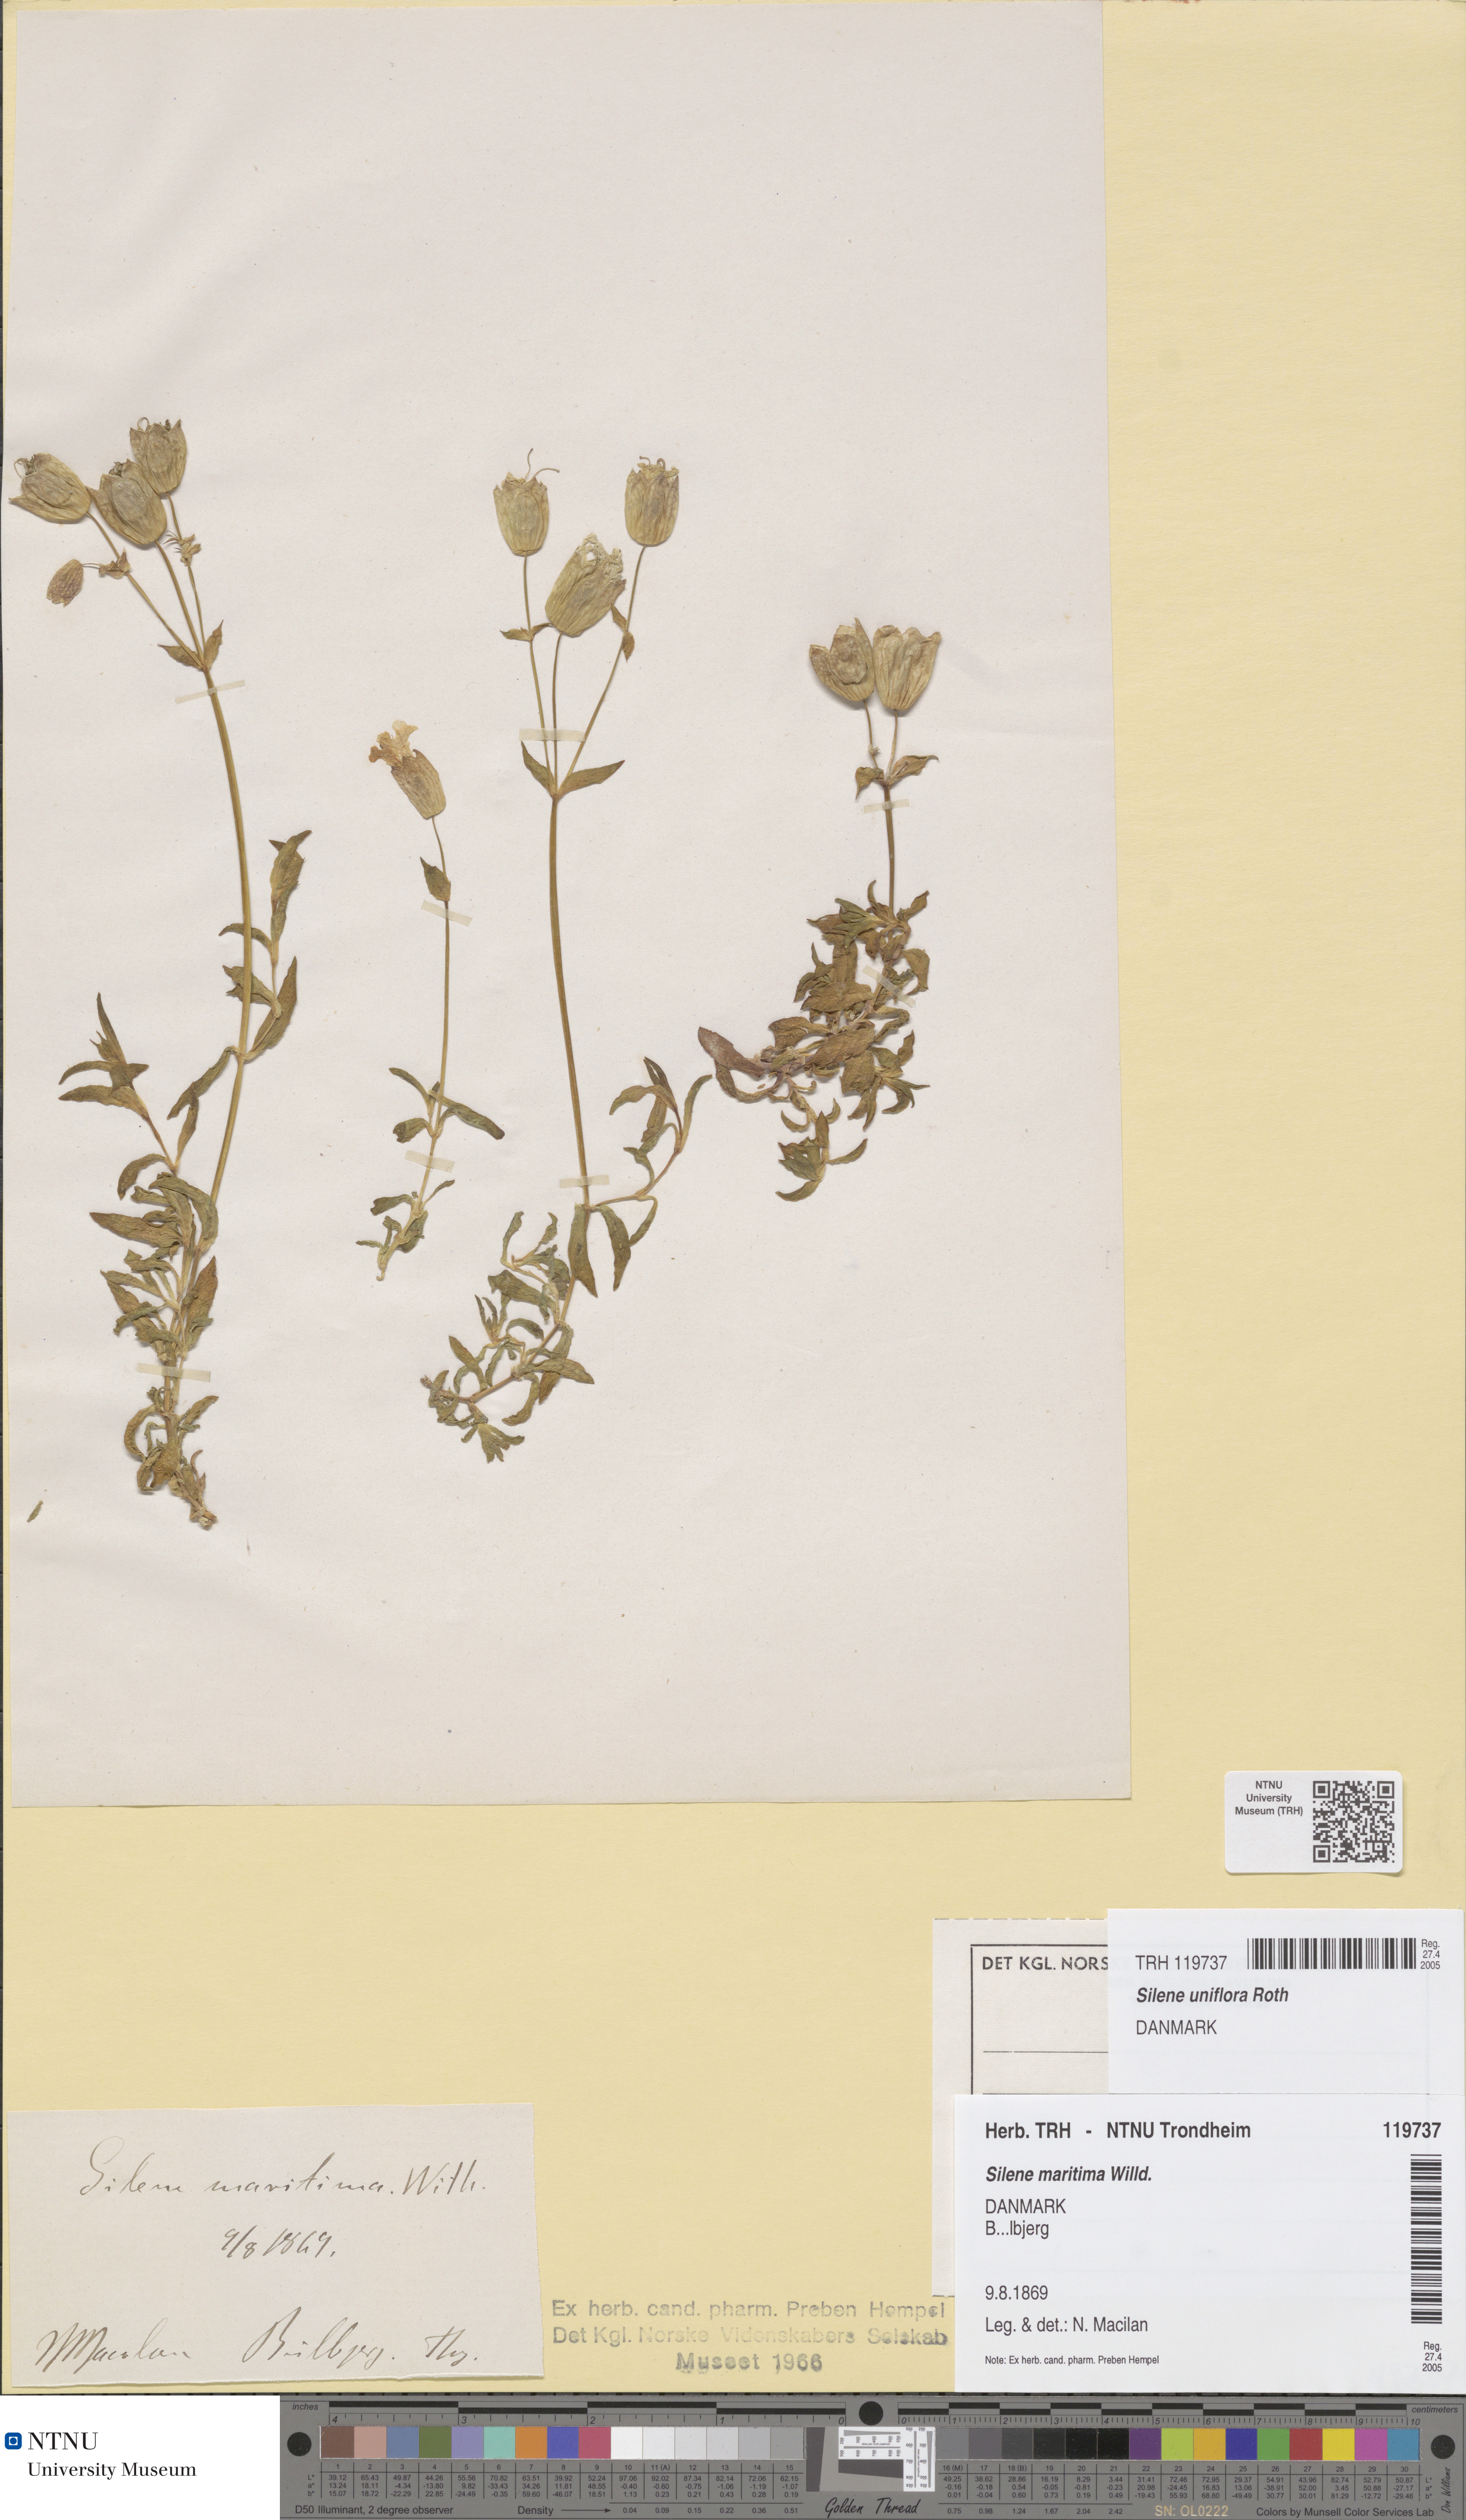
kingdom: Plantae
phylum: Tracheophyta
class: Magnoliopsida
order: Caryophyllales
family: Caryophyllaceae
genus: Silene
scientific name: Silene uniflora
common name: Sea campion
